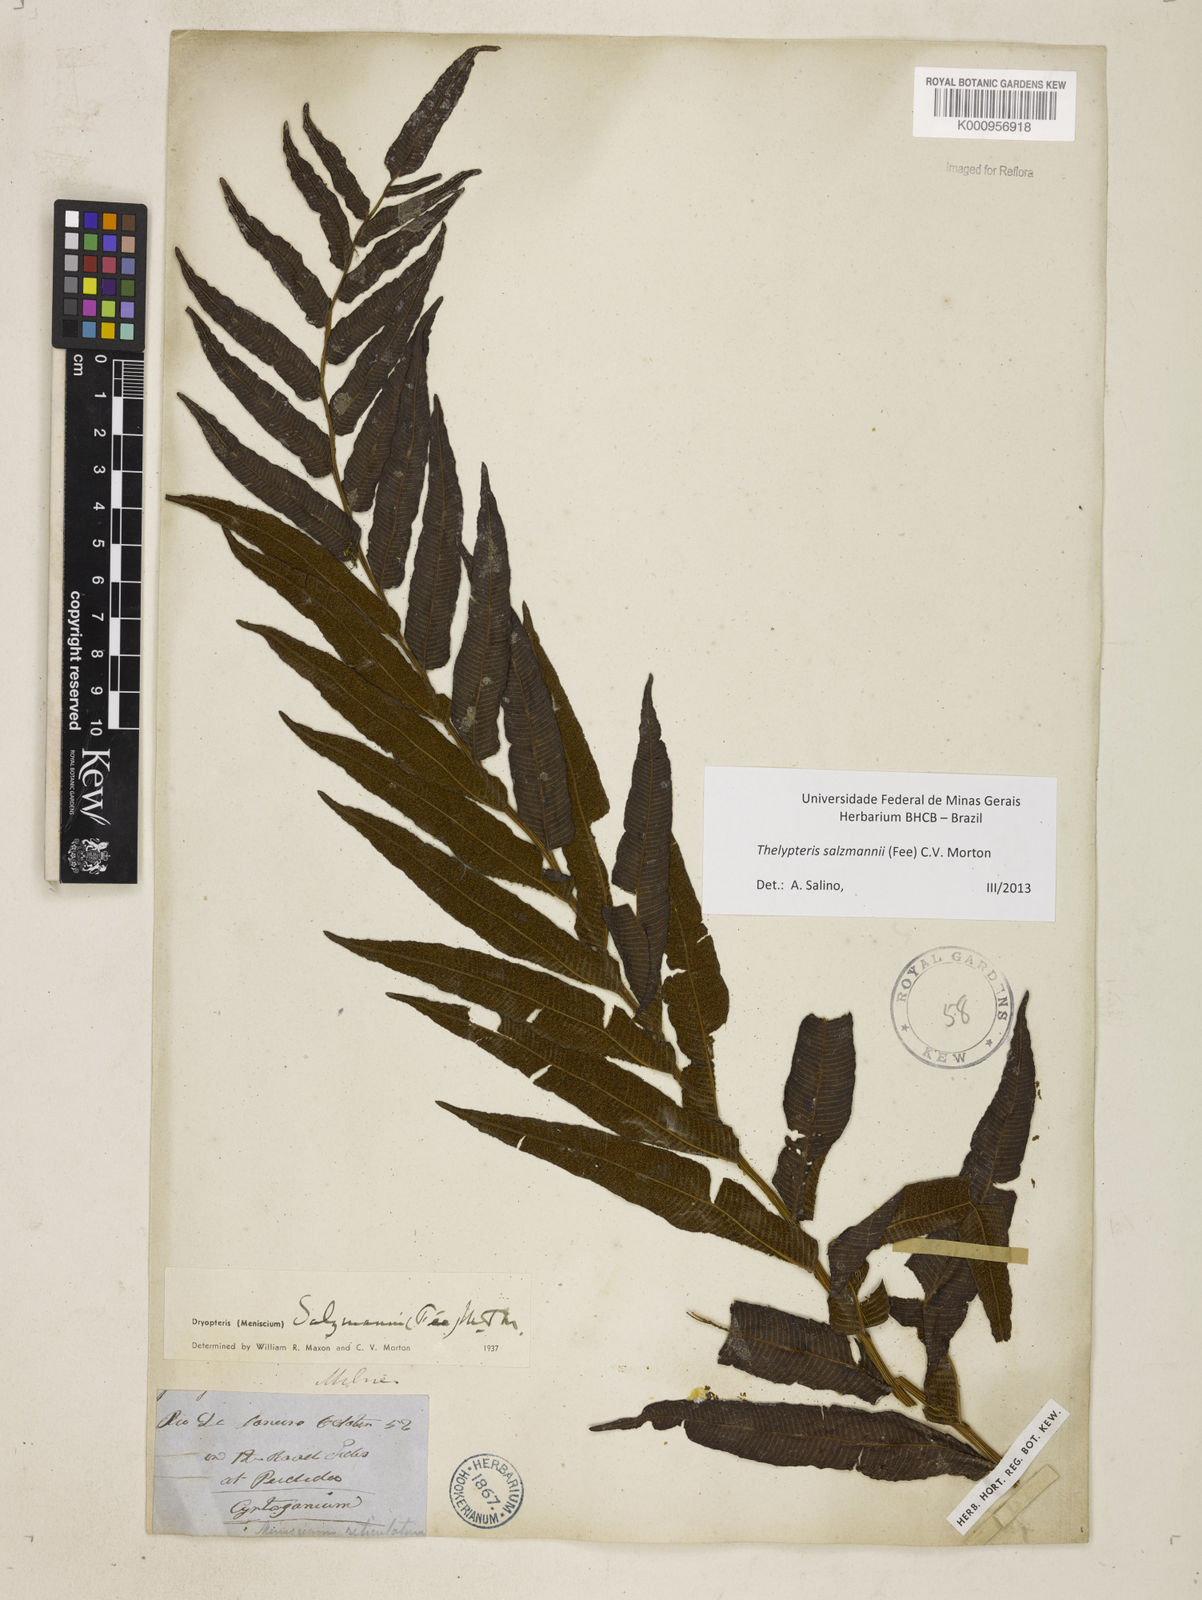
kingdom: Plantae
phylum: Tracheophyta
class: Polypodiopsida
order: Polypodiales
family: Thelypteridaceae
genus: Meniscium
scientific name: Meniscium arborescens
